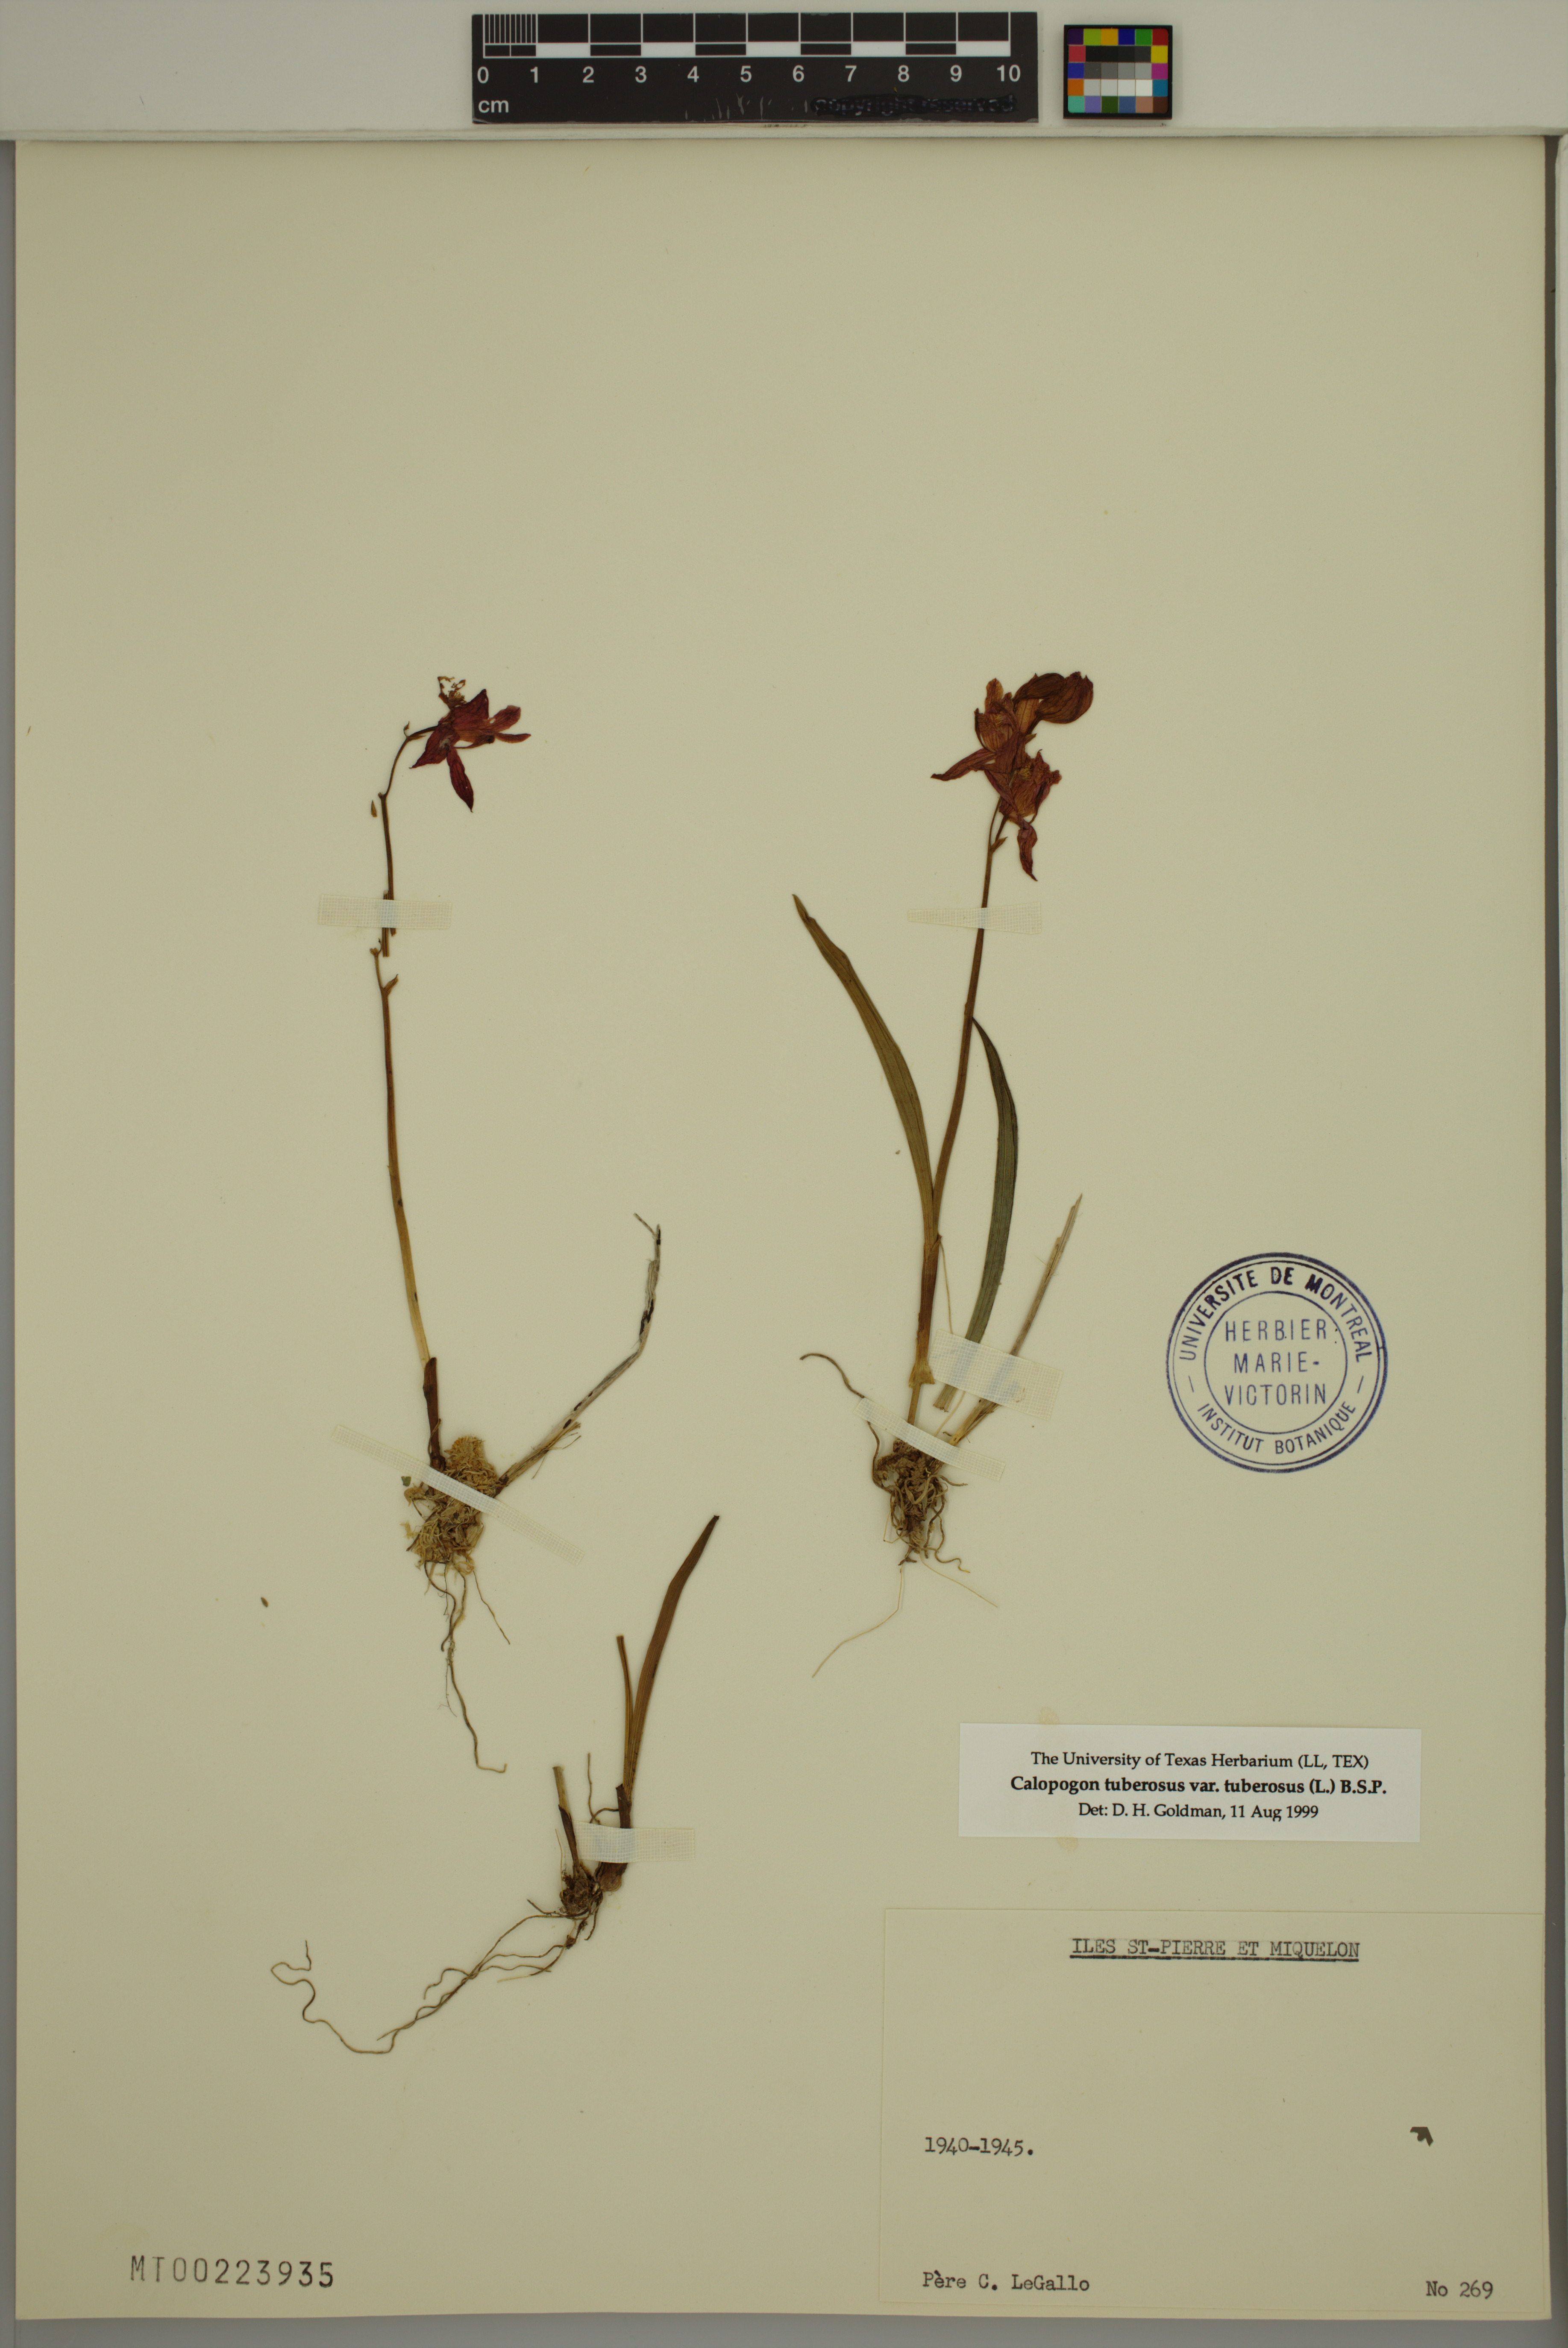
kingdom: Plantae
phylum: Tracheophyta
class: Liliopsida
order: Asparagales
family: Orchidaceae
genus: Calopogon
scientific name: Calopogon tuberosus
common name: Grass-pink
